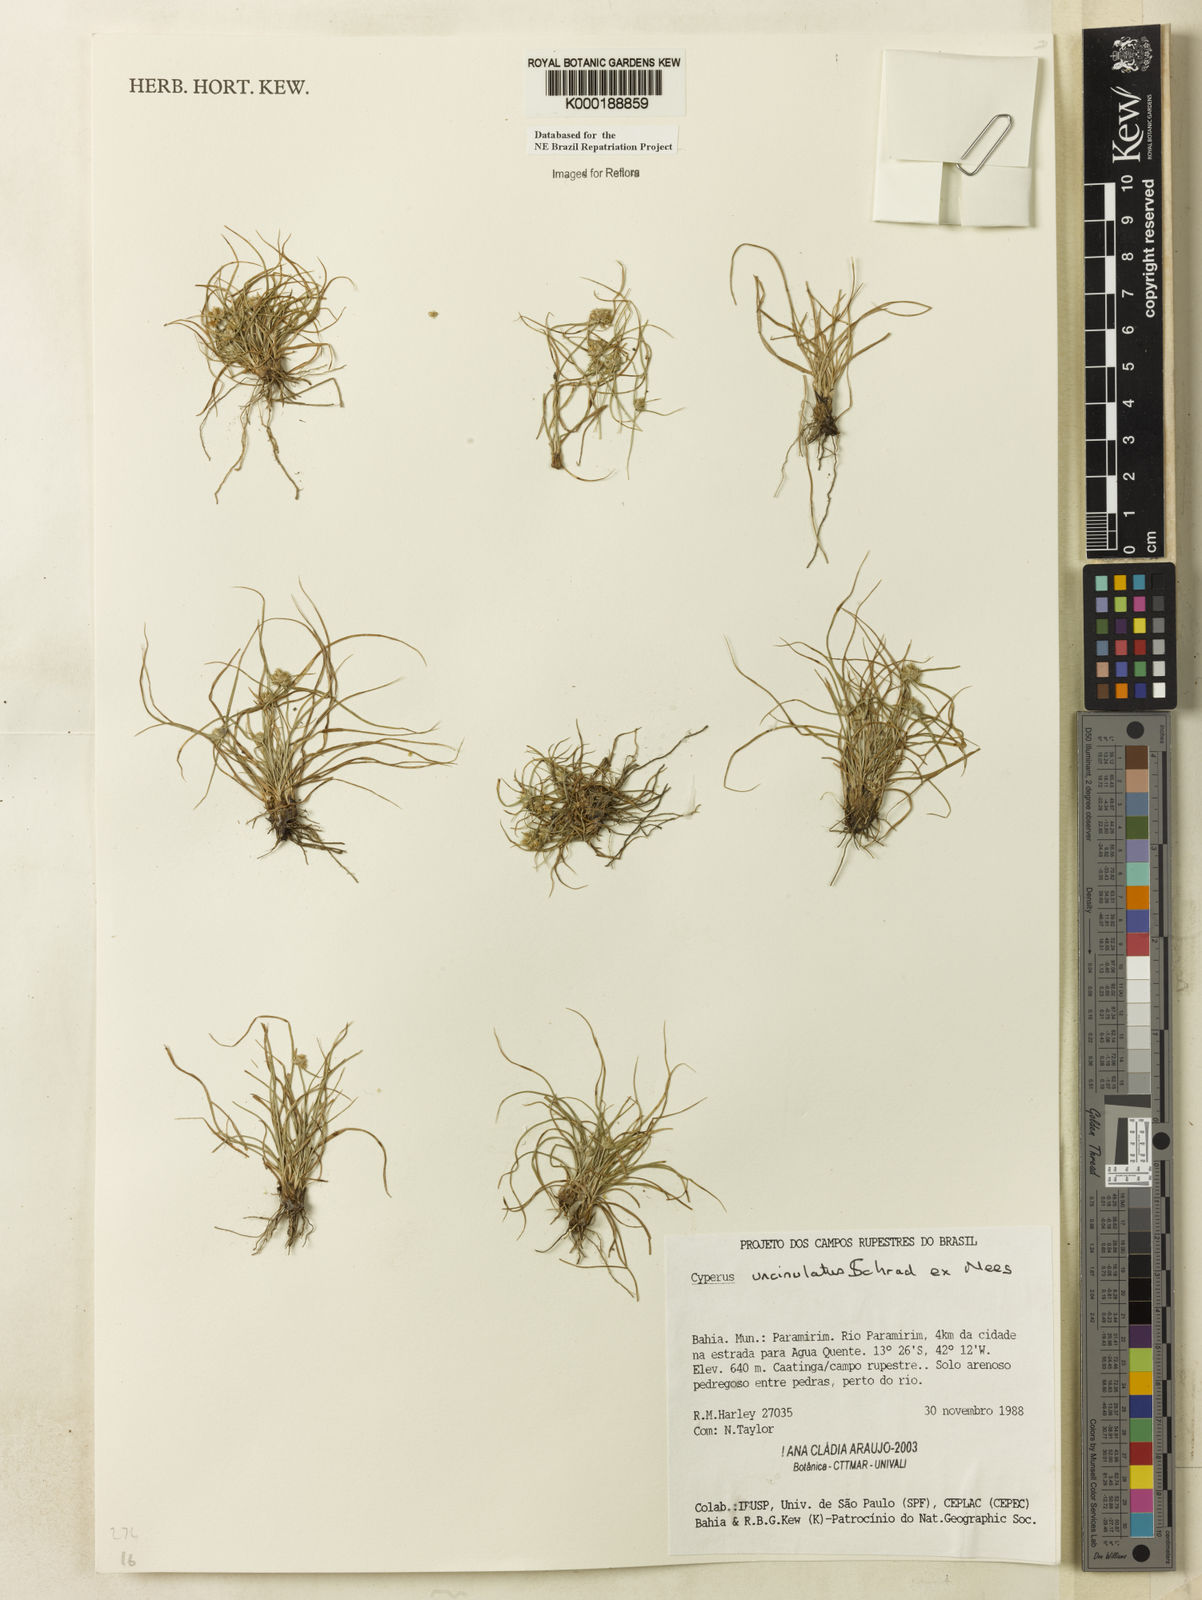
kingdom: Plantae
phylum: Tracheophyta
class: Liliopsida
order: Poales
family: Cyperaceae
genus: Cyperus
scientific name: Cyperus uncinulatus
